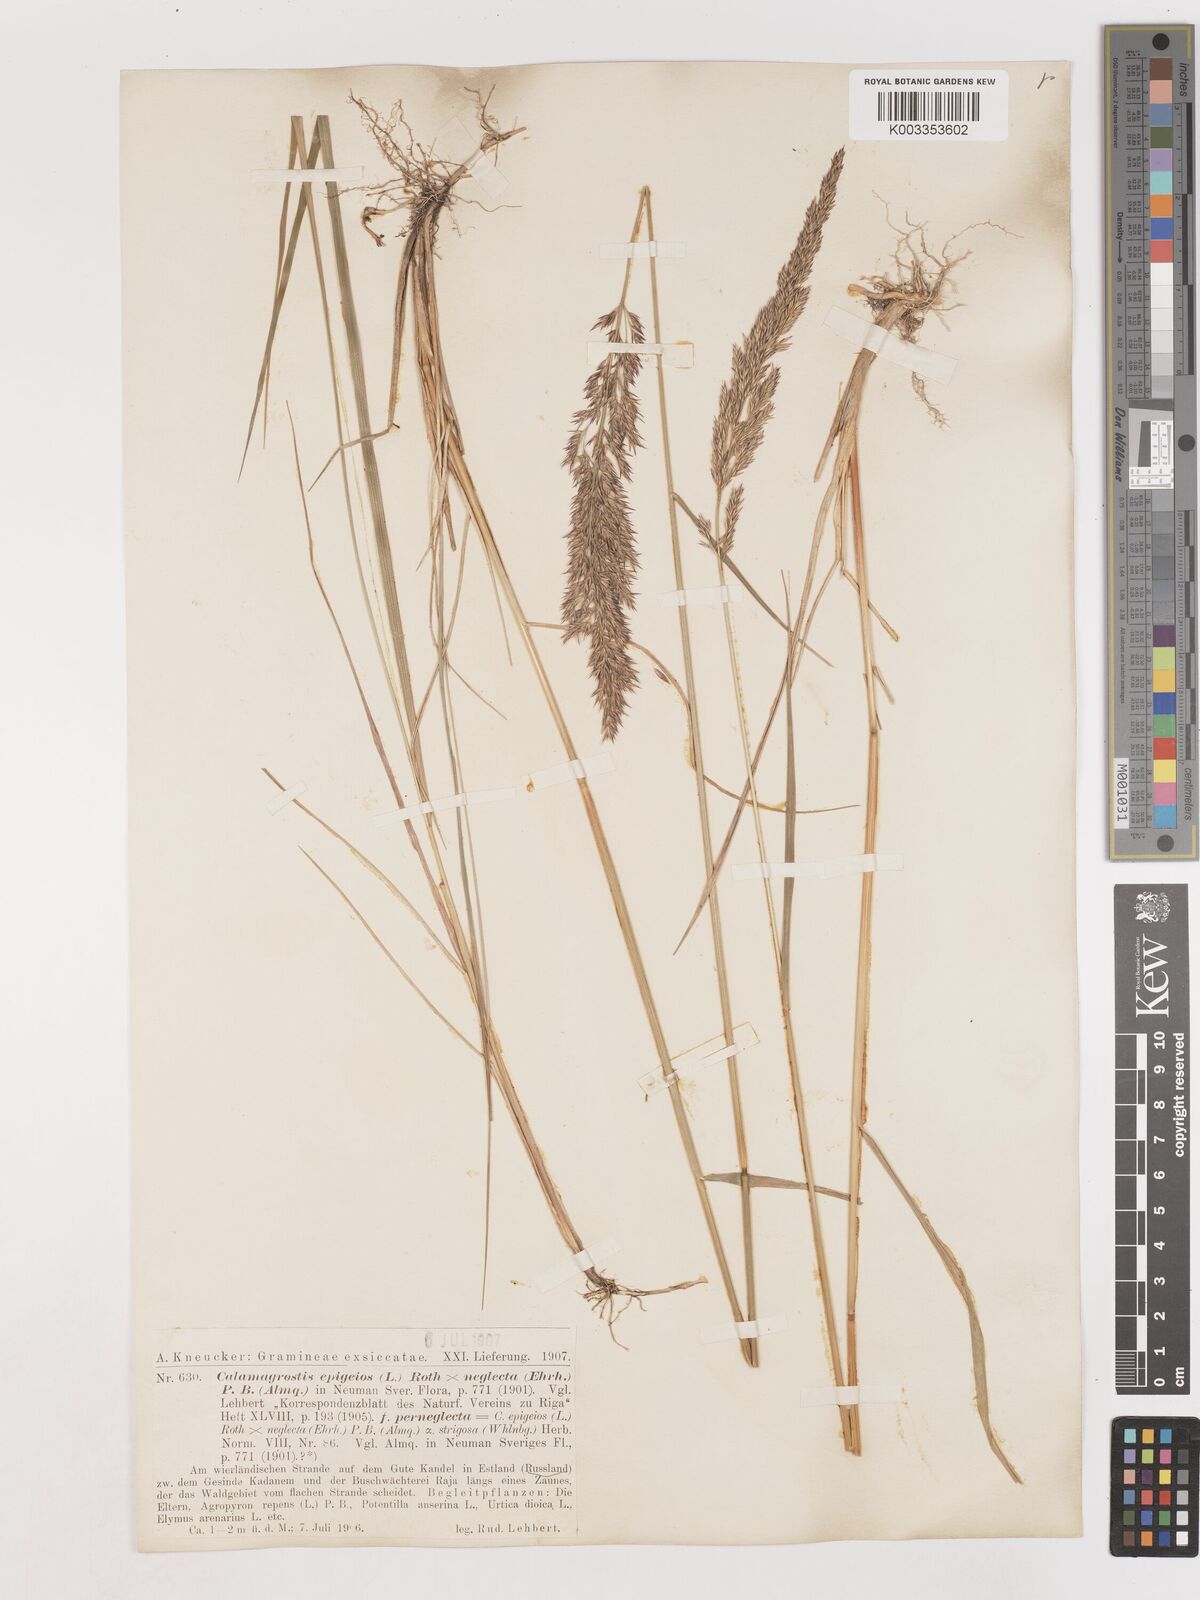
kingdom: Plantae
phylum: Tracheophyta
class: Liliopsida
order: Poales
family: Poaceae
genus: Cinnagrostis
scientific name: Cinnagrostis recta
